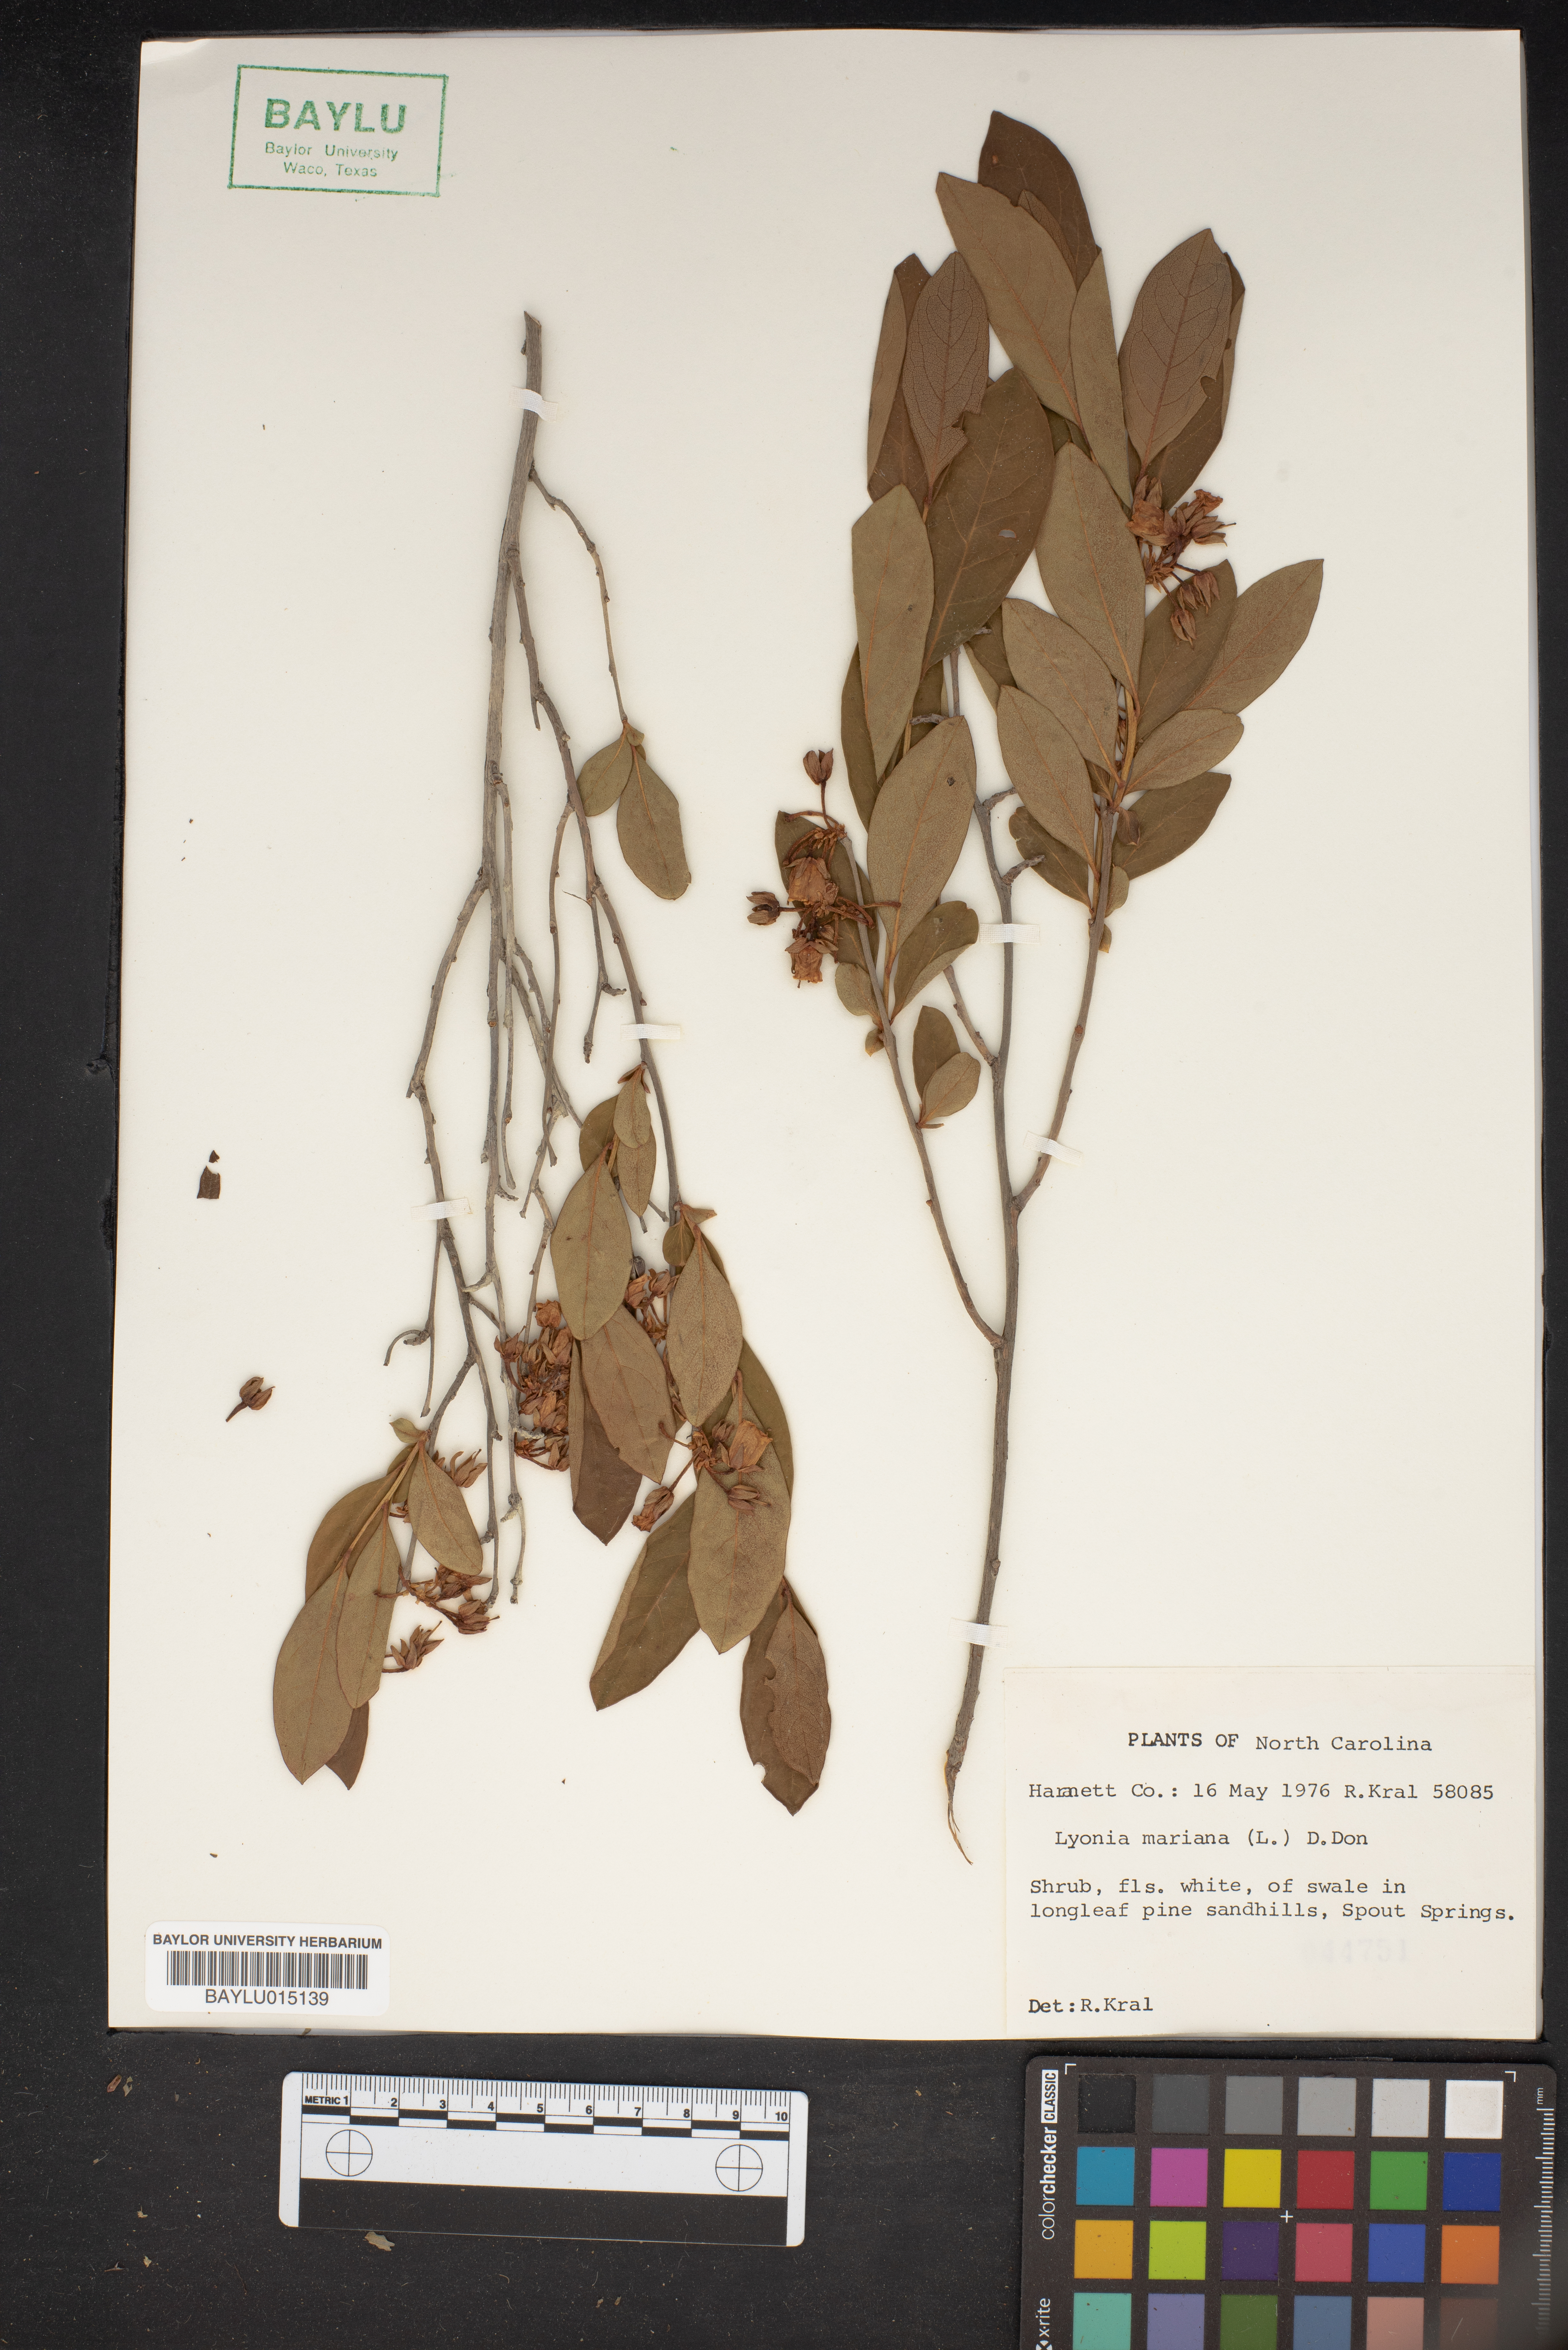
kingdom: Plantae
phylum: Tracheophyta
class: Magnoliopsida
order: Ericales
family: Ericaceae
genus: Lyonia
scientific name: Lyonia mariana
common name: Staggerbush
